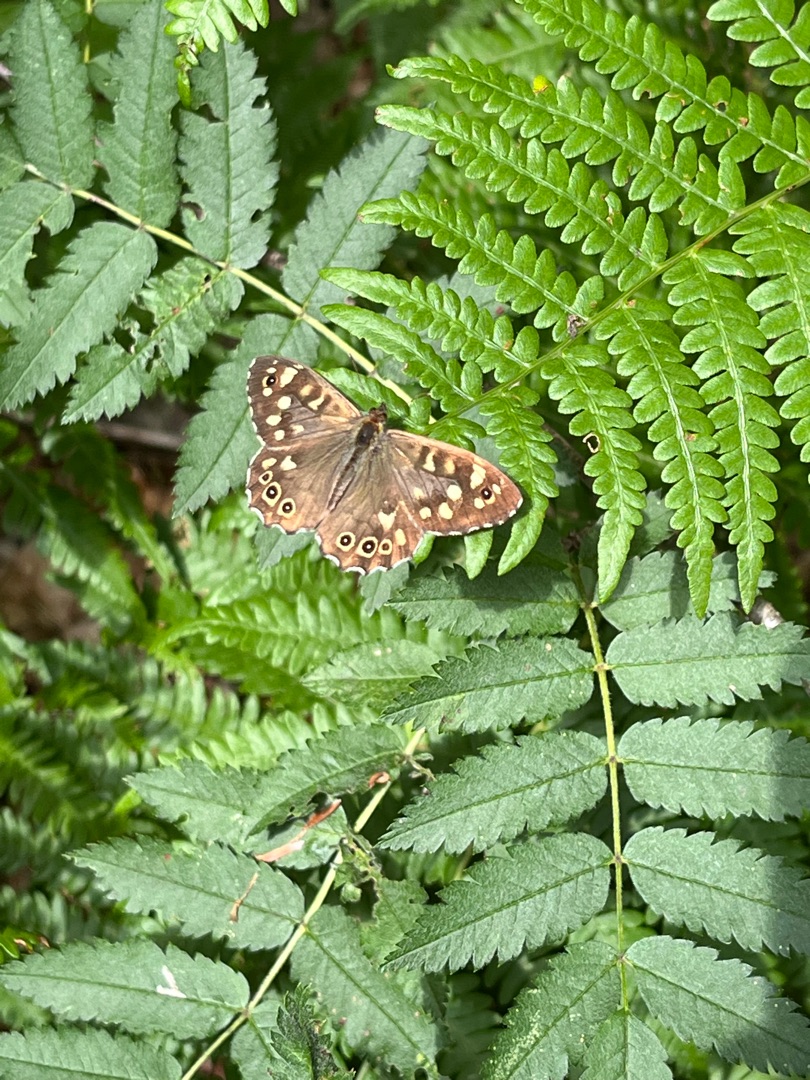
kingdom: Animalia
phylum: Arthropoda
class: Insecta
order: Lepidoptera
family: Nymphalidae
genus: Pararge
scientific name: Pararge aegeria
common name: Skovrandøje
